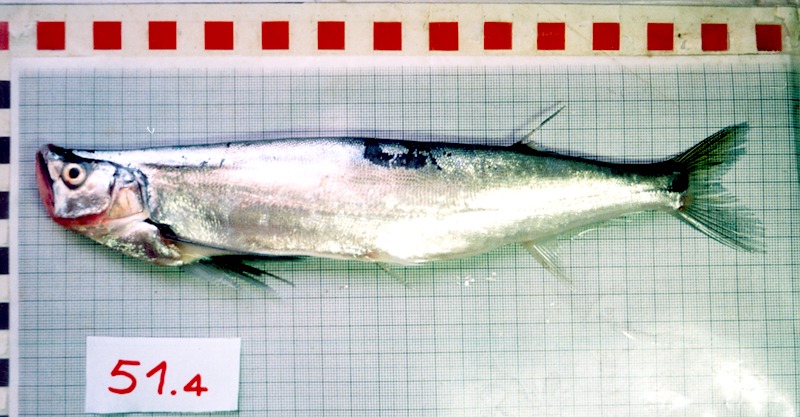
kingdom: Animalia
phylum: Chordata
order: Cypriniformes
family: Cyprinidae
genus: Macrochirichthys
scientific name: Macrochirichthys macrochirus
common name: Long pectoral-fin minnow
